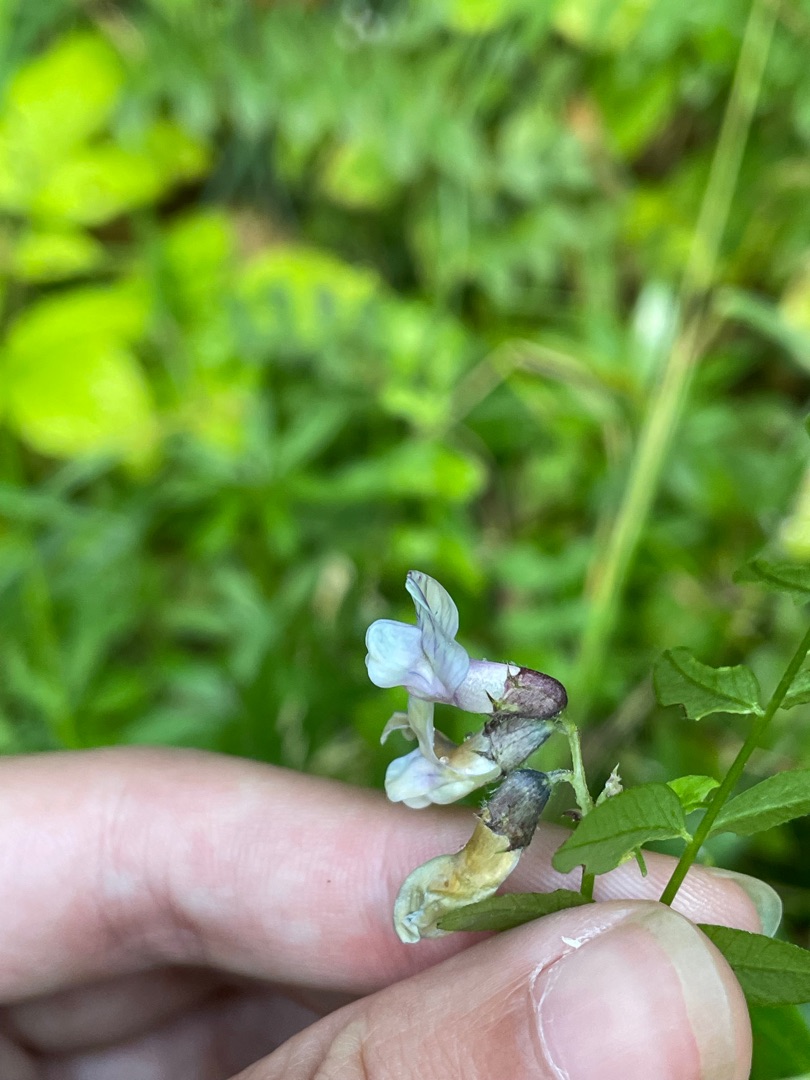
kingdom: Plantae
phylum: Tracheophyta
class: Magnoliopsida
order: Fabales
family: Fabaceae
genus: Vicia
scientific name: Vicia sepium
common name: Gærde-vikke
